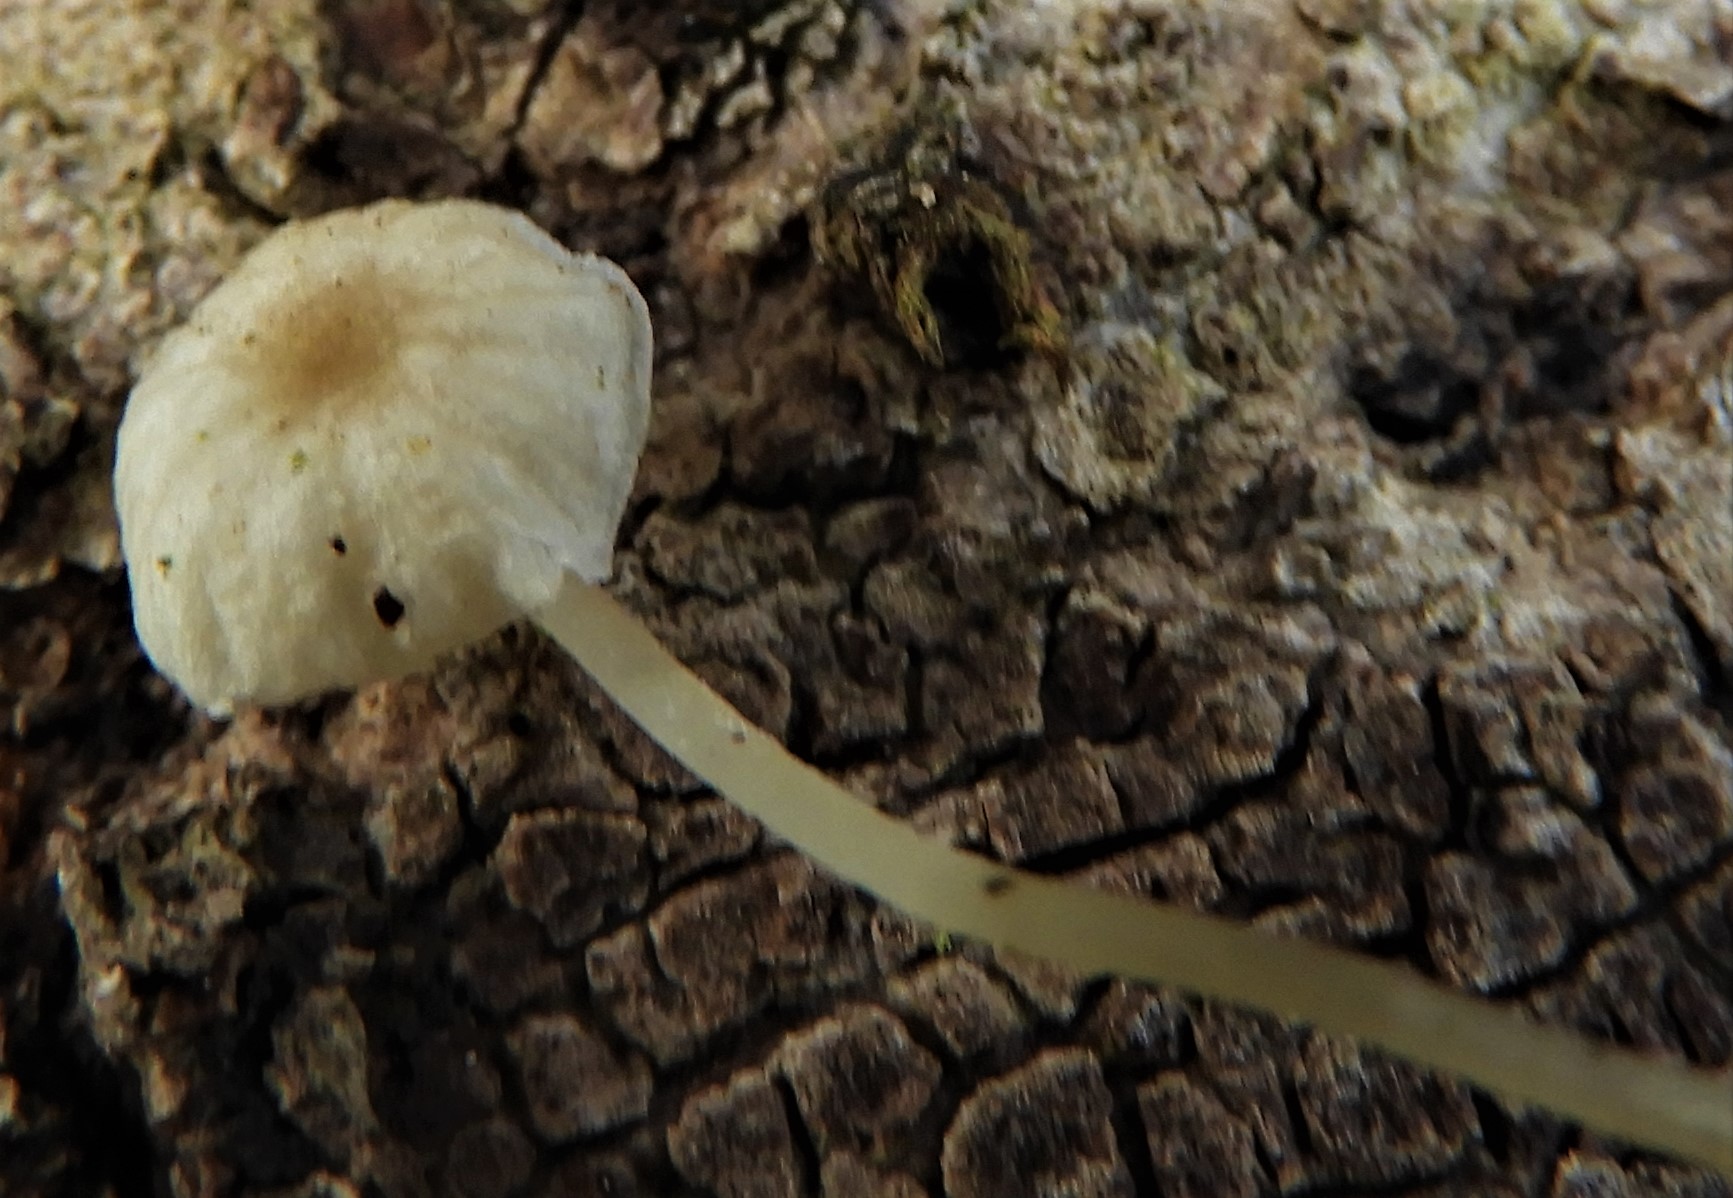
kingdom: Fungi
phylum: Basidiomycota
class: Agaricomycetes
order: Agaricales
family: Porotheleaceae
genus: Phloeomana
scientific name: Phloeomana speirea
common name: kvist-huesvamp
